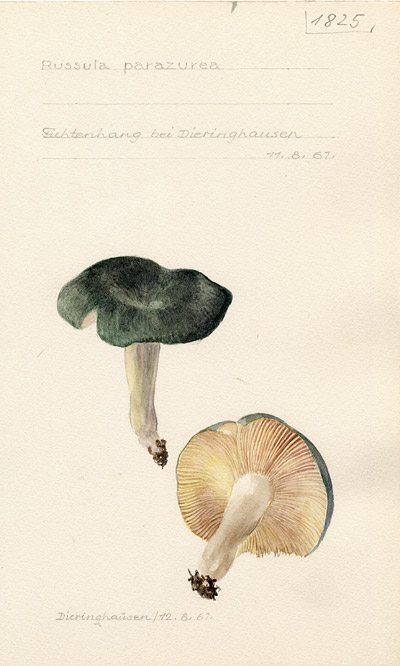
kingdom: Fungi
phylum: Basidiomycota
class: Agaricomycetes
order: Russulales
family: Russulaceae
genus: Russula
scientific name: Russula parazurea
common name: Powdery brittlegill
